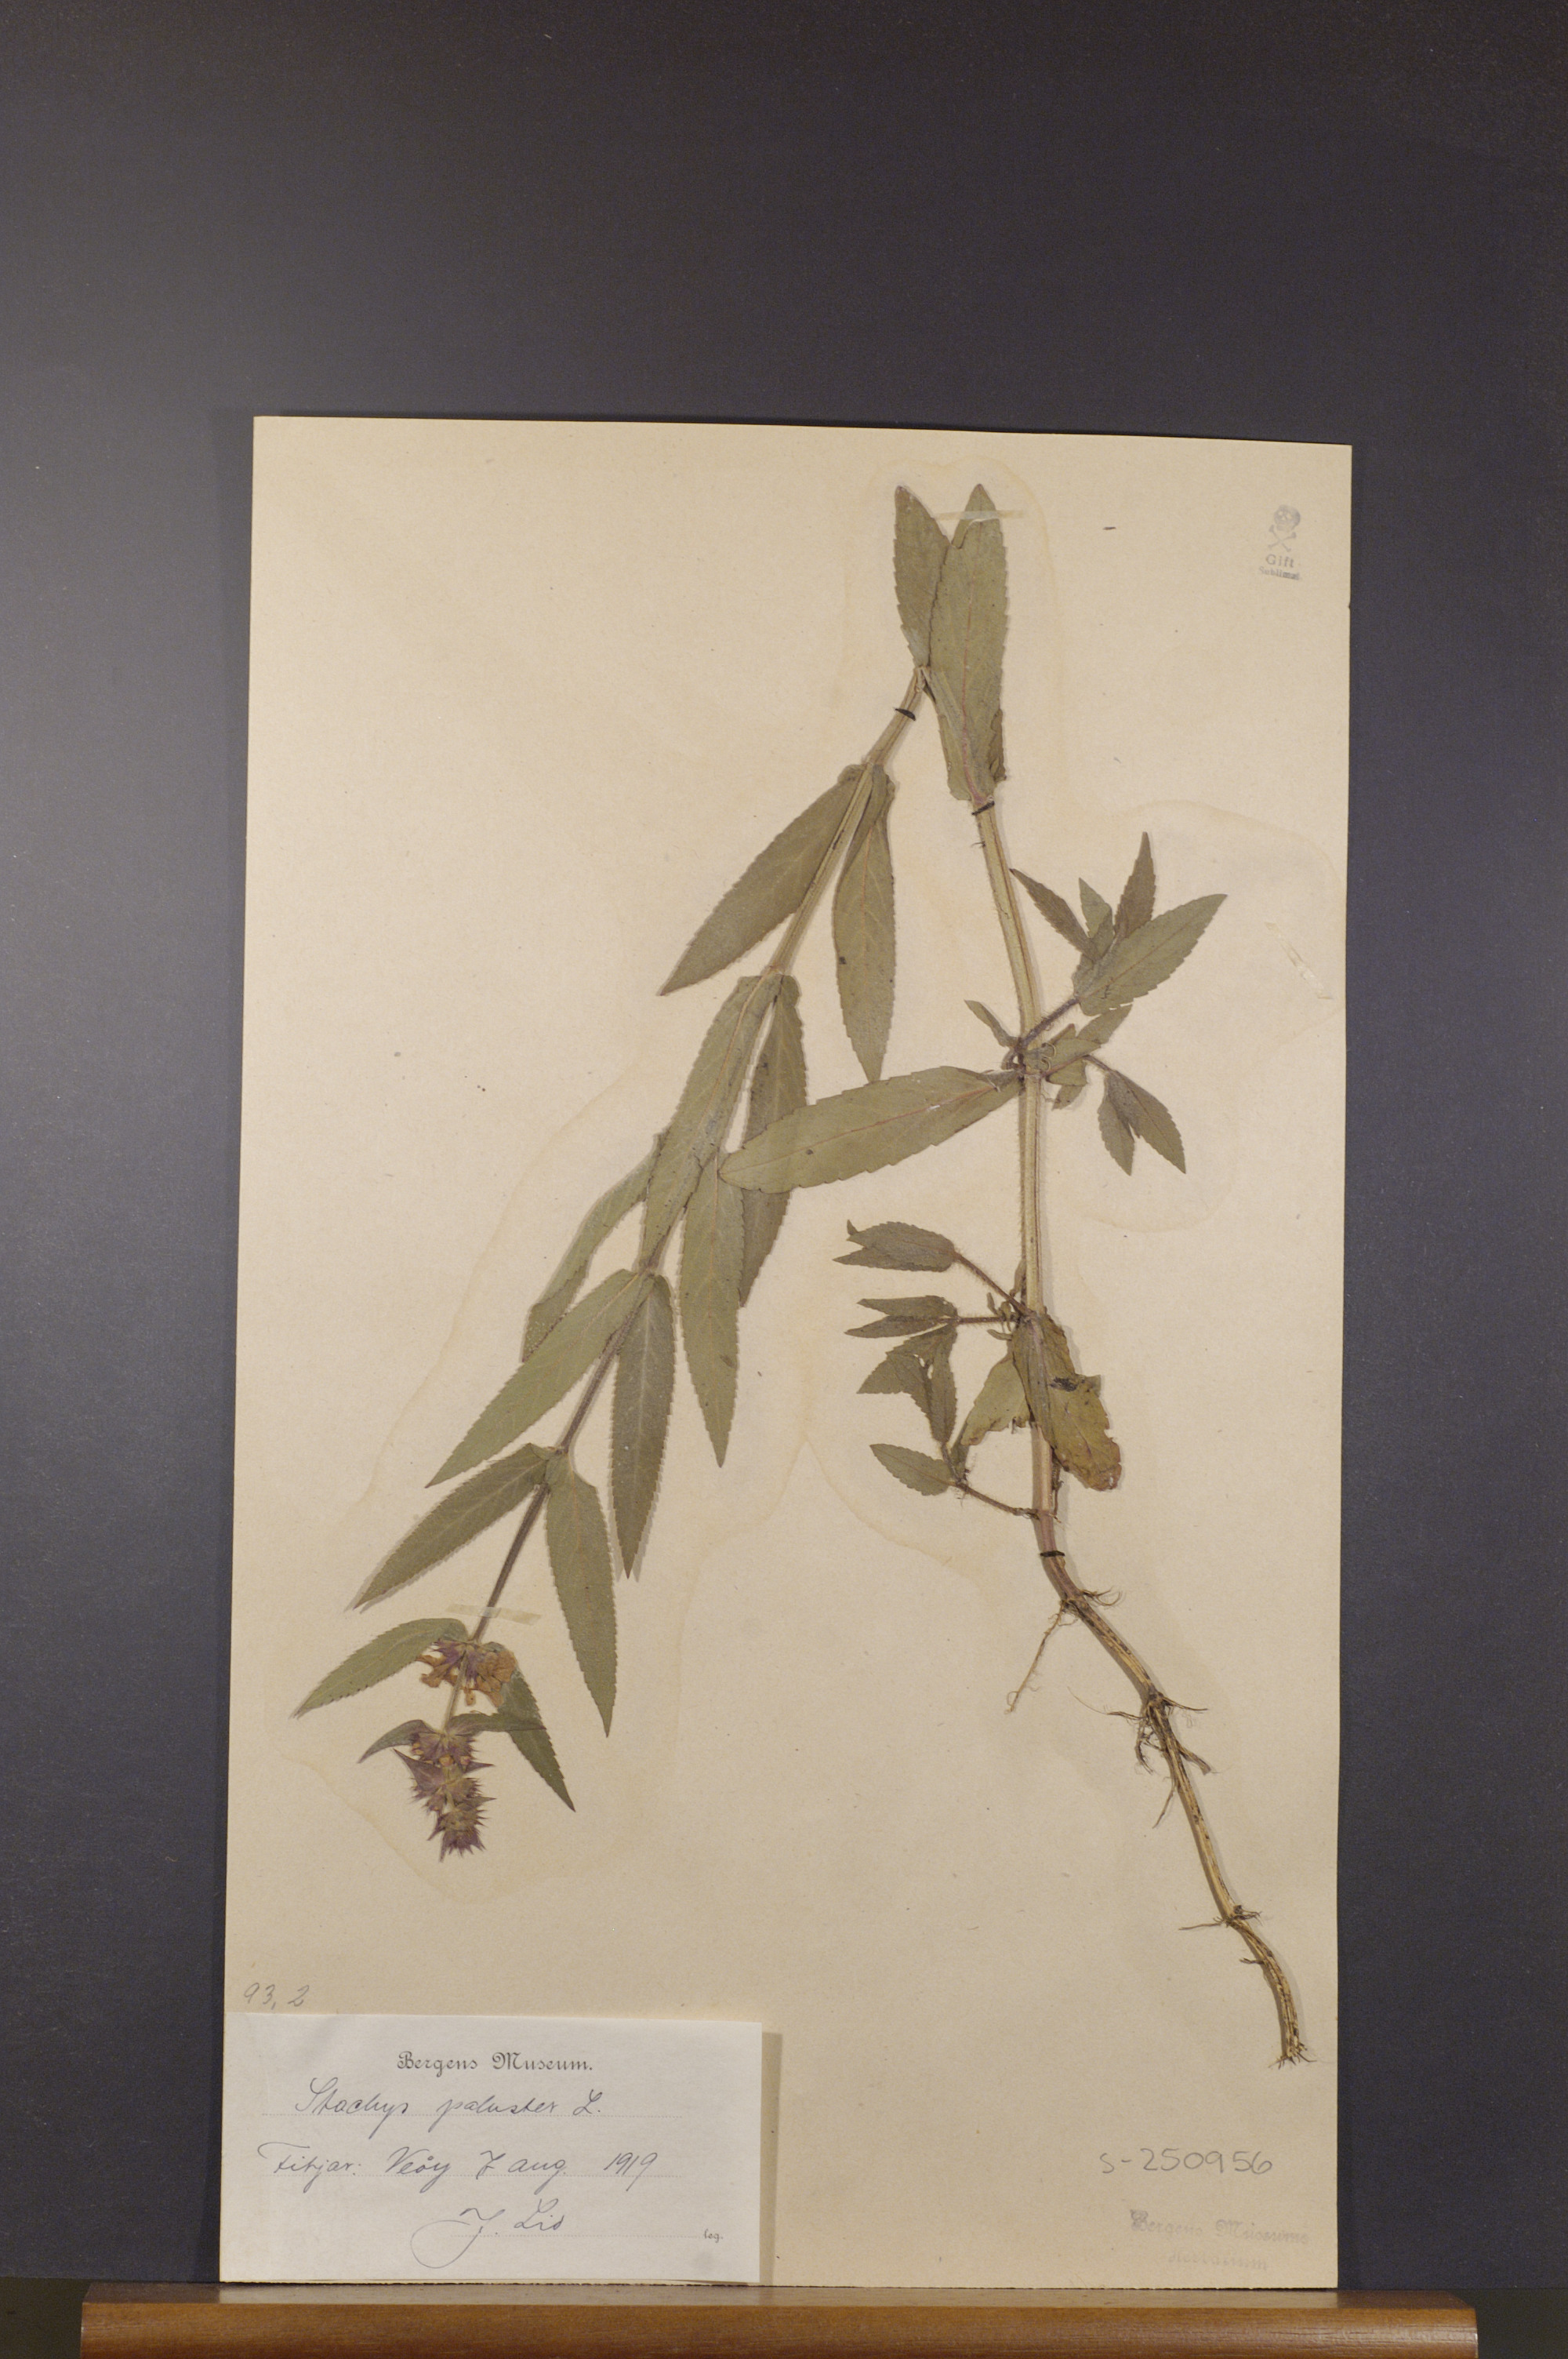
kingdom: Plantae
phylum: Tracheophyta
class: Magnoliopsida
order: Lamiales
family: Lamiaceae
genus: Stachys
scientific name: Stachys palustris
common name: Marsh woundwort
